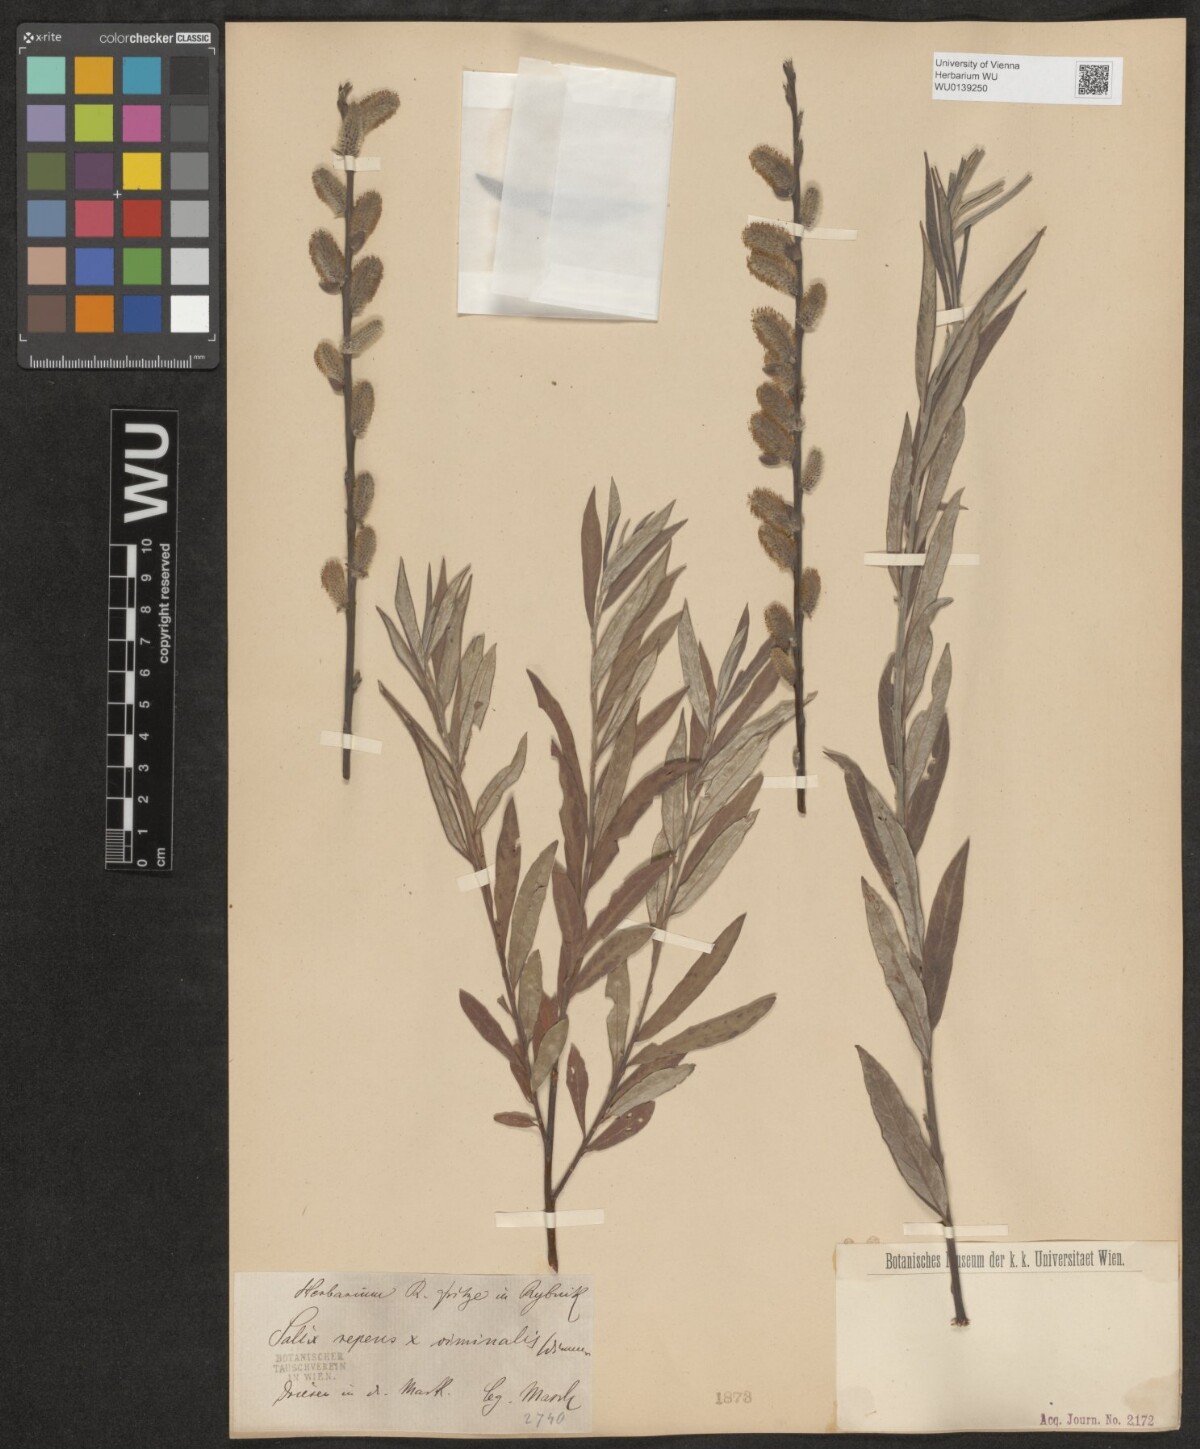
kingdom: Plantae
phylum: Tracheophyta
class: Magnoliopsida
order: Malpighiales
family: Salicaceae
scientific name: Salicaceae
